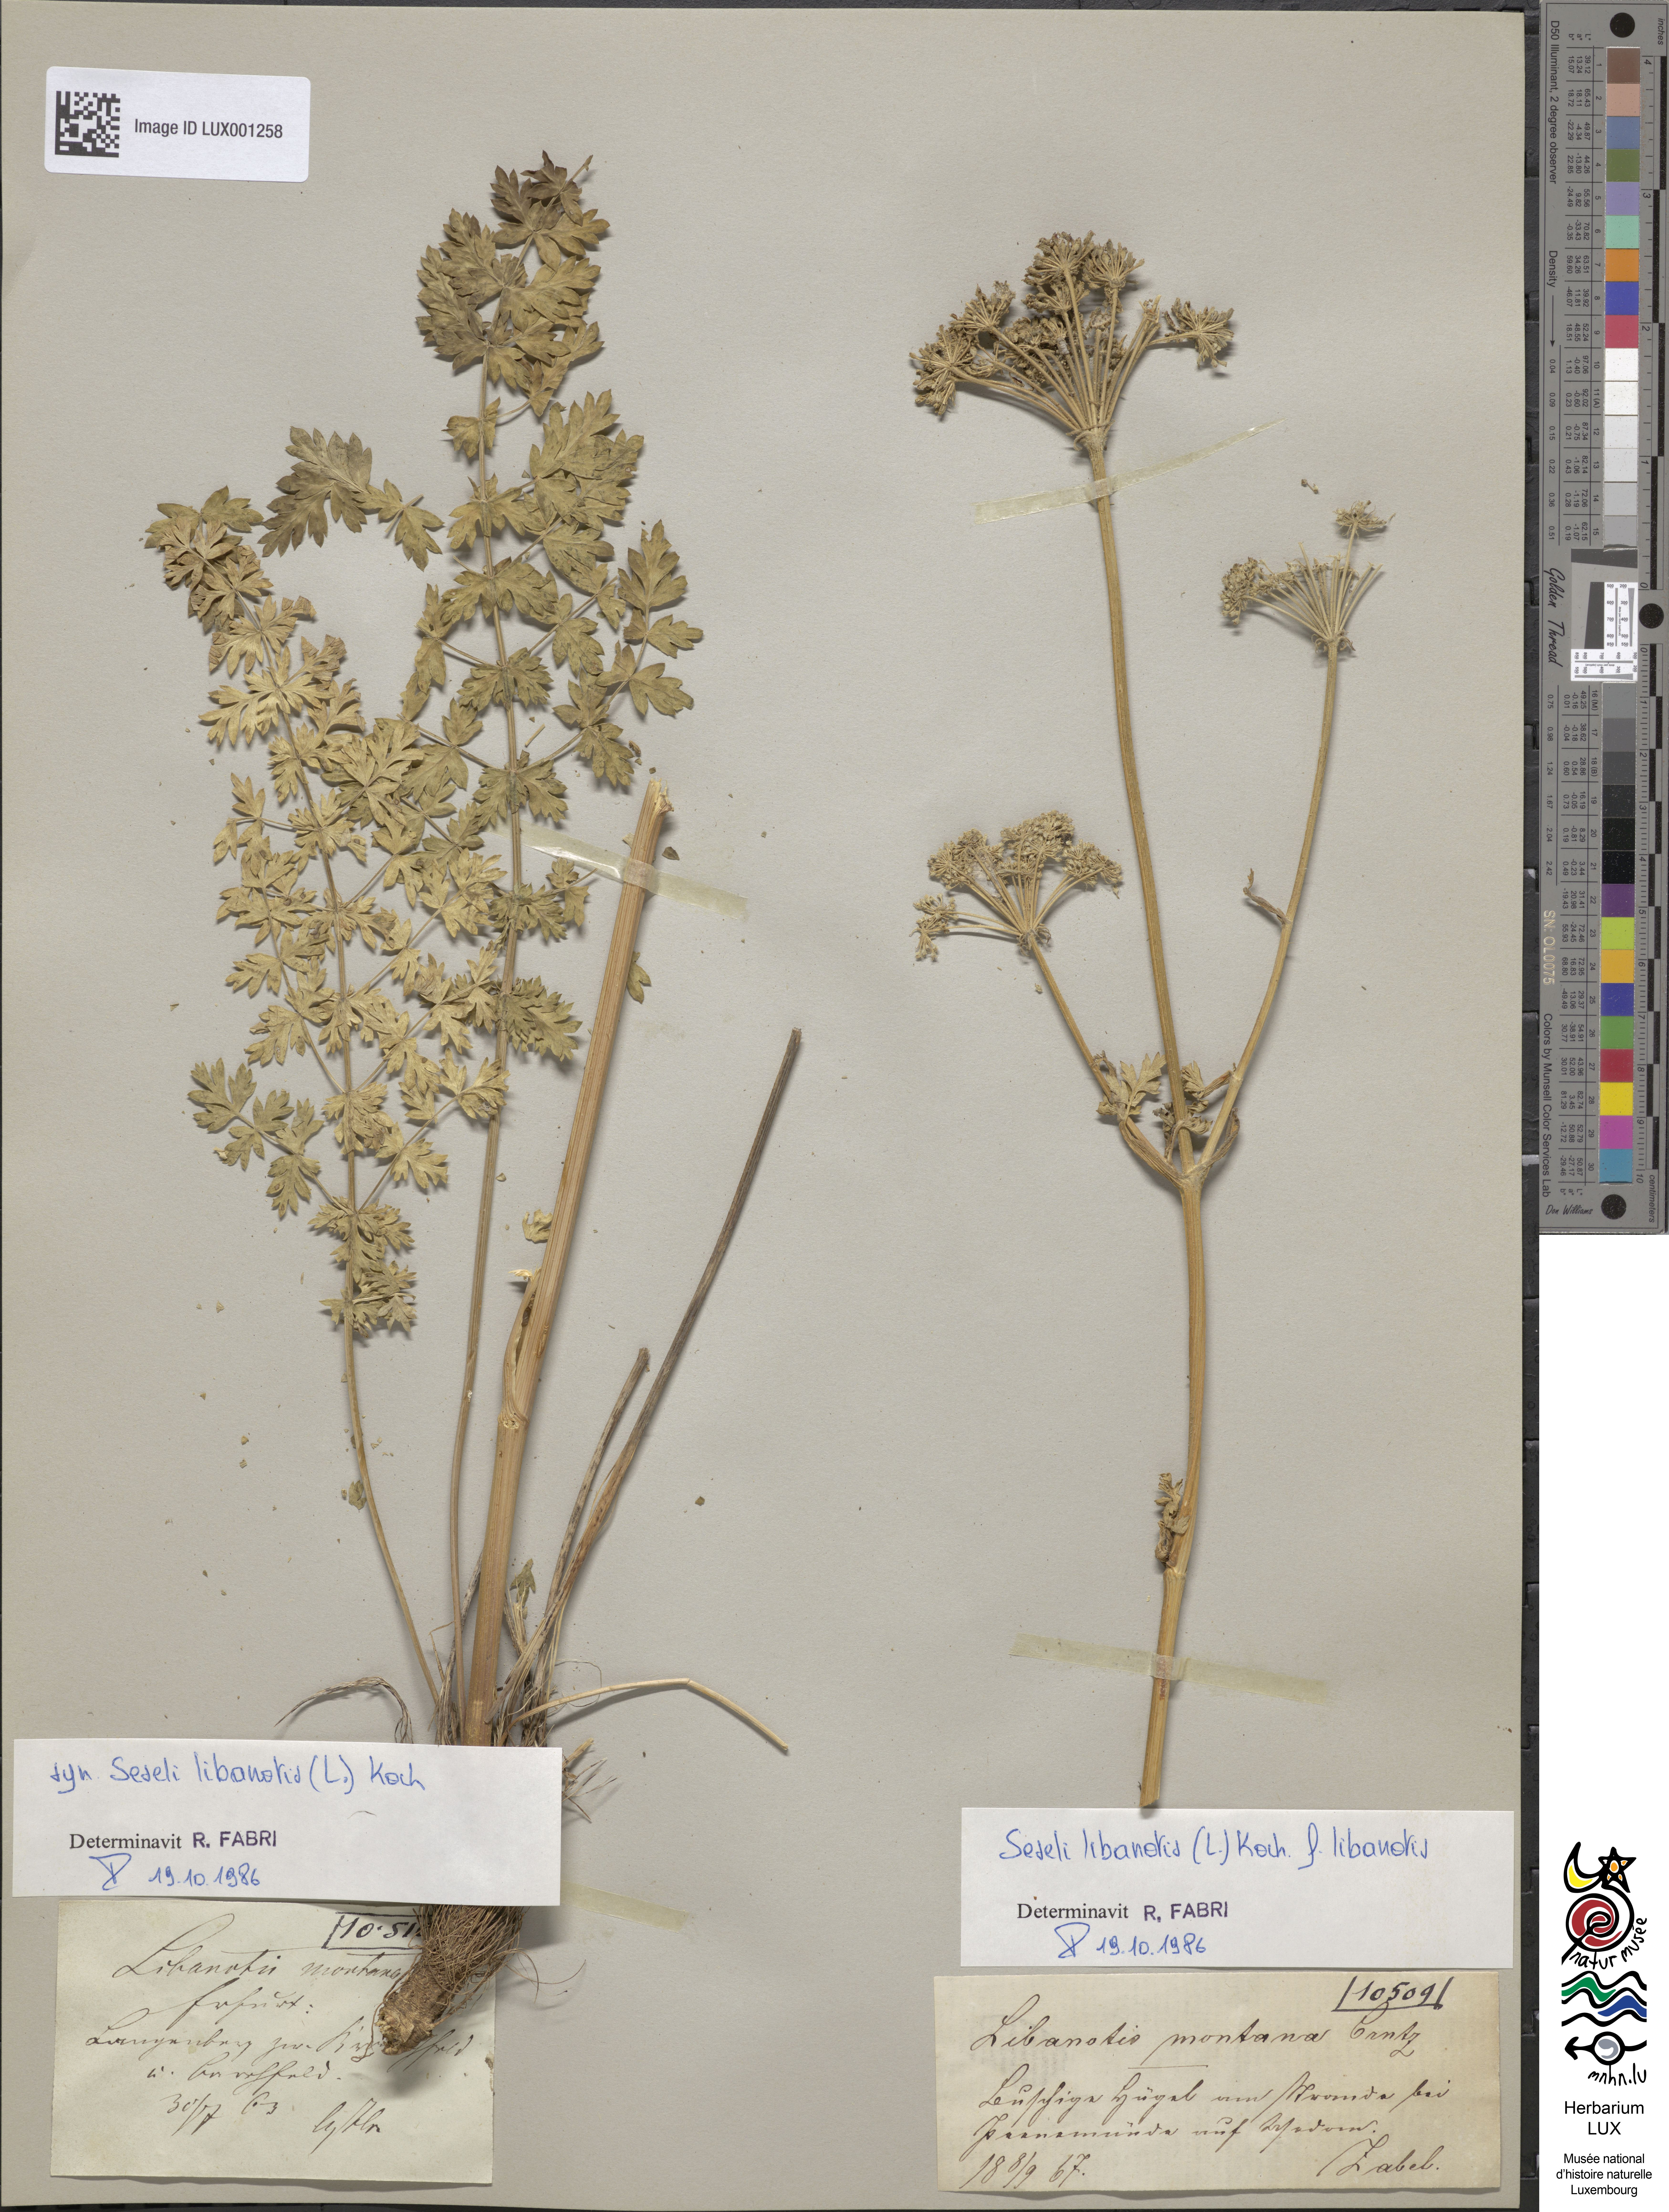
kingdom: Plantae
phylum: Tracheophyta
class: Magnoliopsida
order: Apiales
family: Apiaceae
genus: Seseli
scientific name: Seseli libanotis
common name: Mooncarrot
